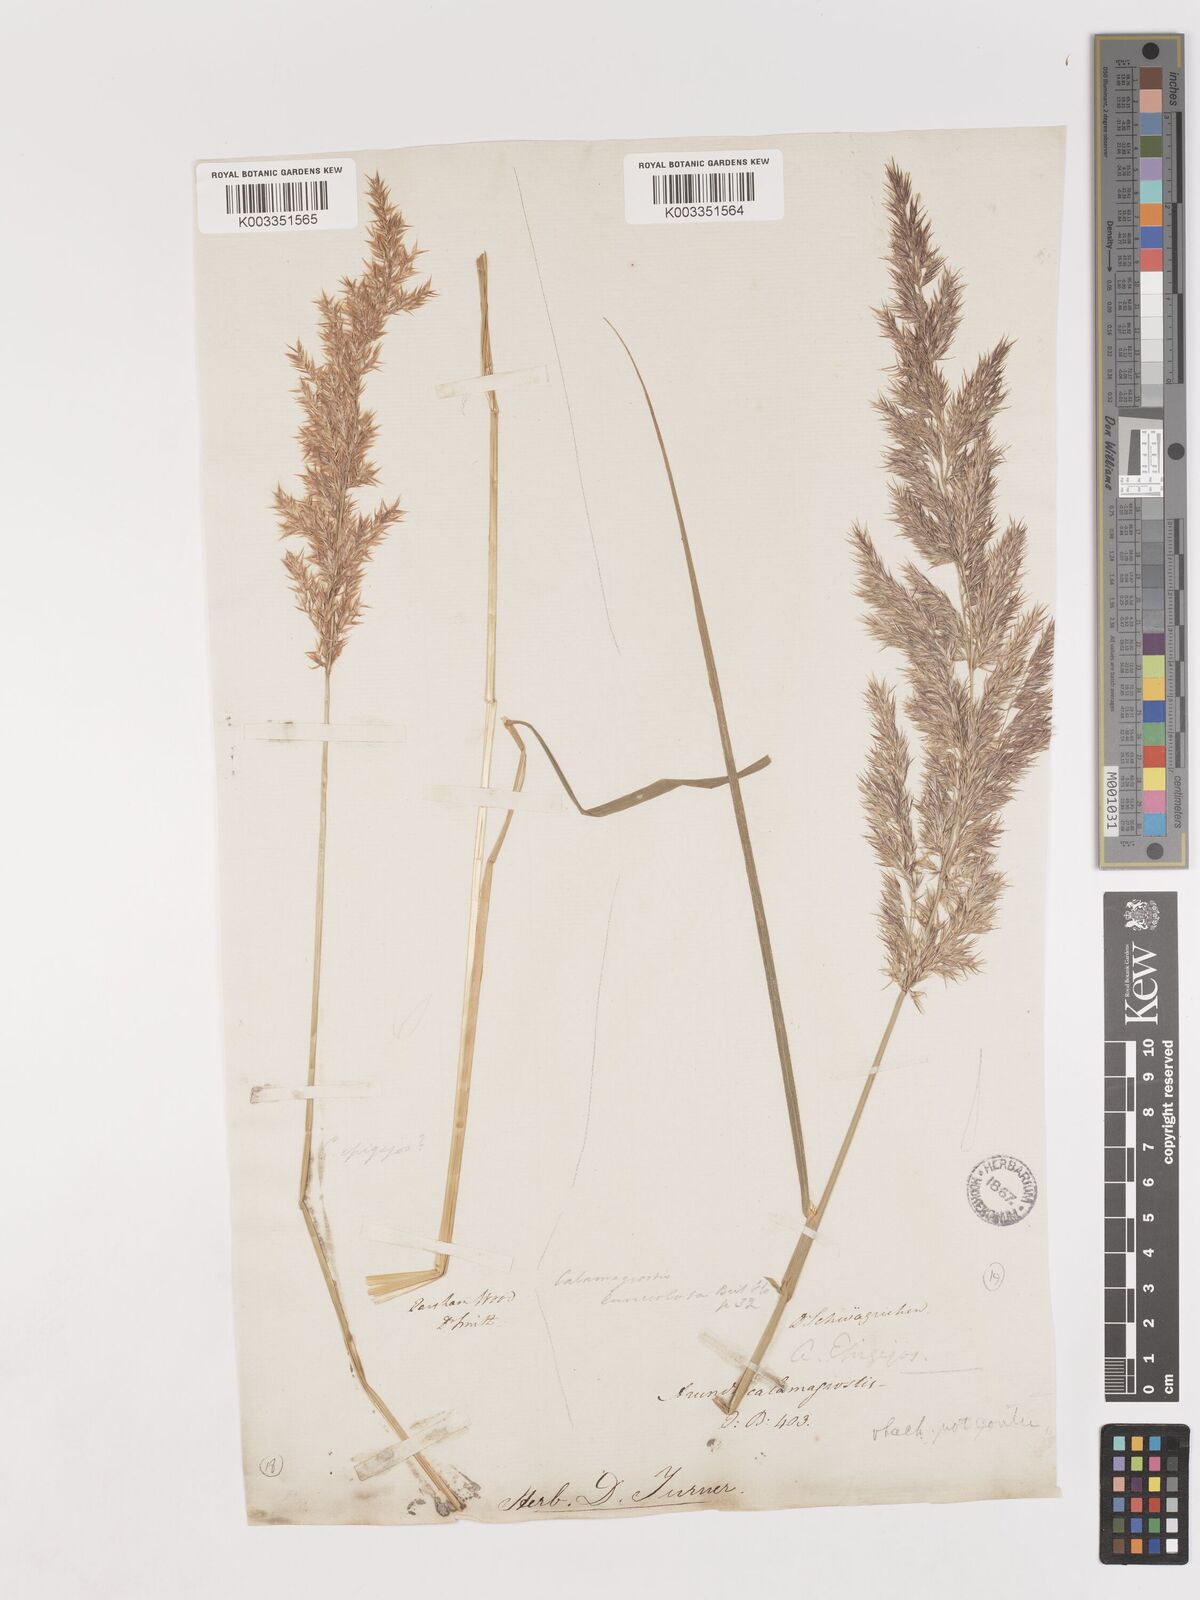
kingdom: Plantae
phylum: Tracheophyta
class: Liliopsida
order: Poales
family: Poaceae
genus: Calamagrostis
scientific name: Calamagrostis canescens
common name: Purple small-reed
